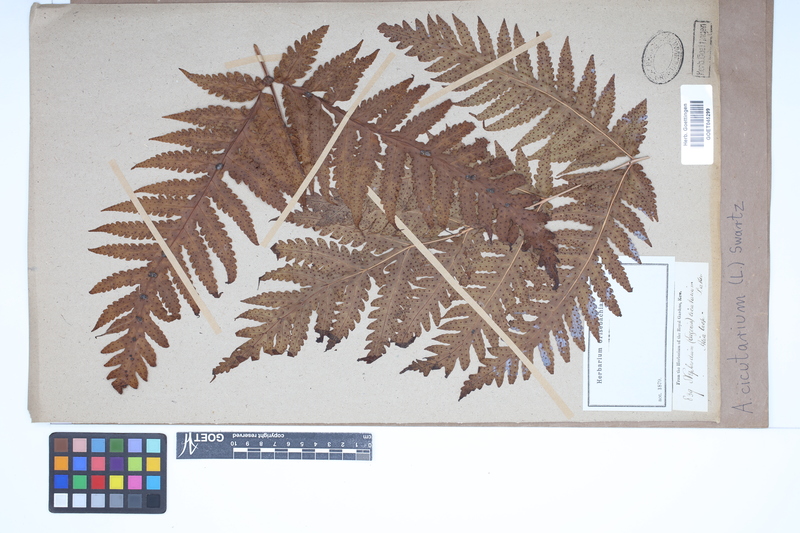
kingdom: Plantae
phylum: Tracheophyta
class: Polypodiopsida
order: Polypodiales
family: Tectariaceae
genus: Tectaria
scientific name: Tectaria cicutaria
